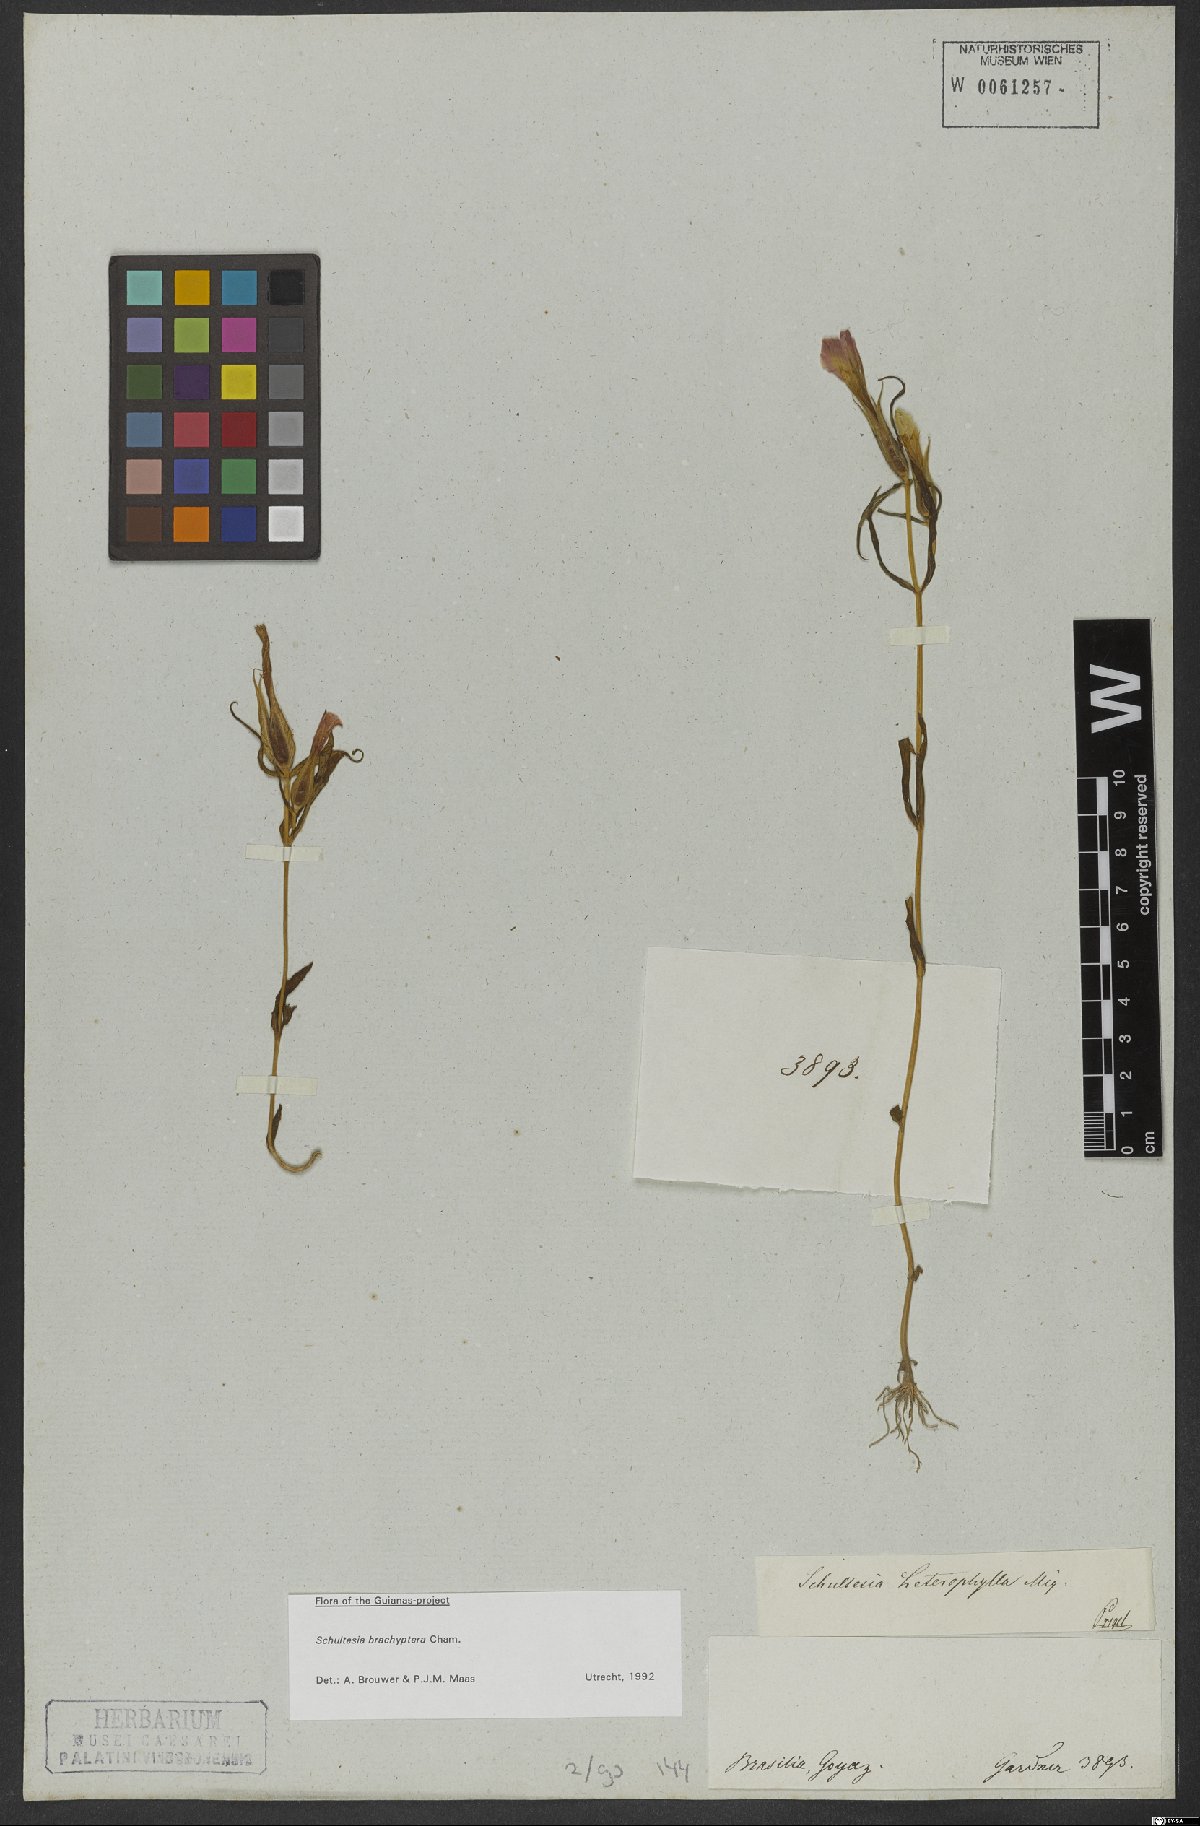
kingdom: Plantae
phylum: Tracheophyta
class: Magnoliopsida
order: Gentianales
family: Gentianaceae
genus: Schultesia
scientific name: Schultesia brachyptera
